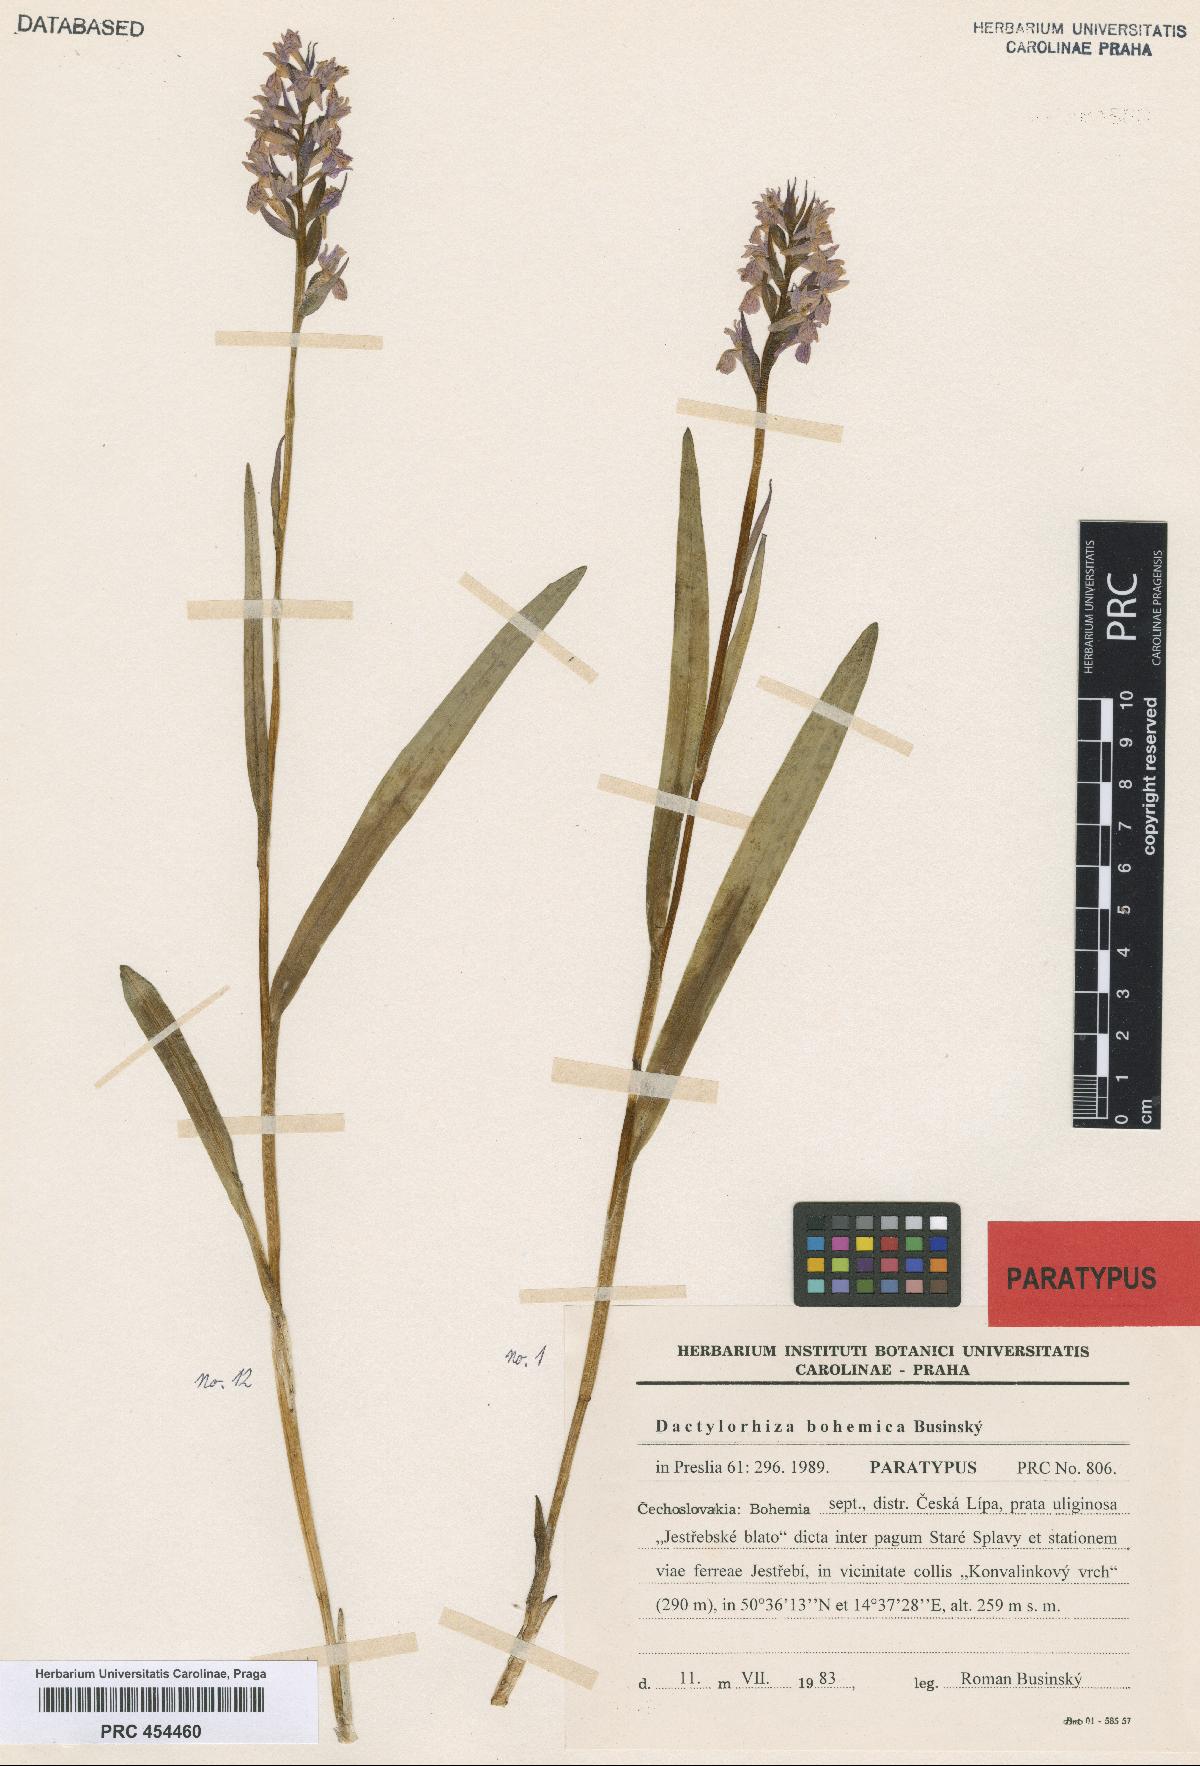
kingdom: Plantae
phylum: Tracheophyta
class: Liliopsida
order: Asparagales
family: Orchidaceae
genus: Dactylorhiza
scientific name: Dactylorhiza majalis
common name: Marsh orchid
